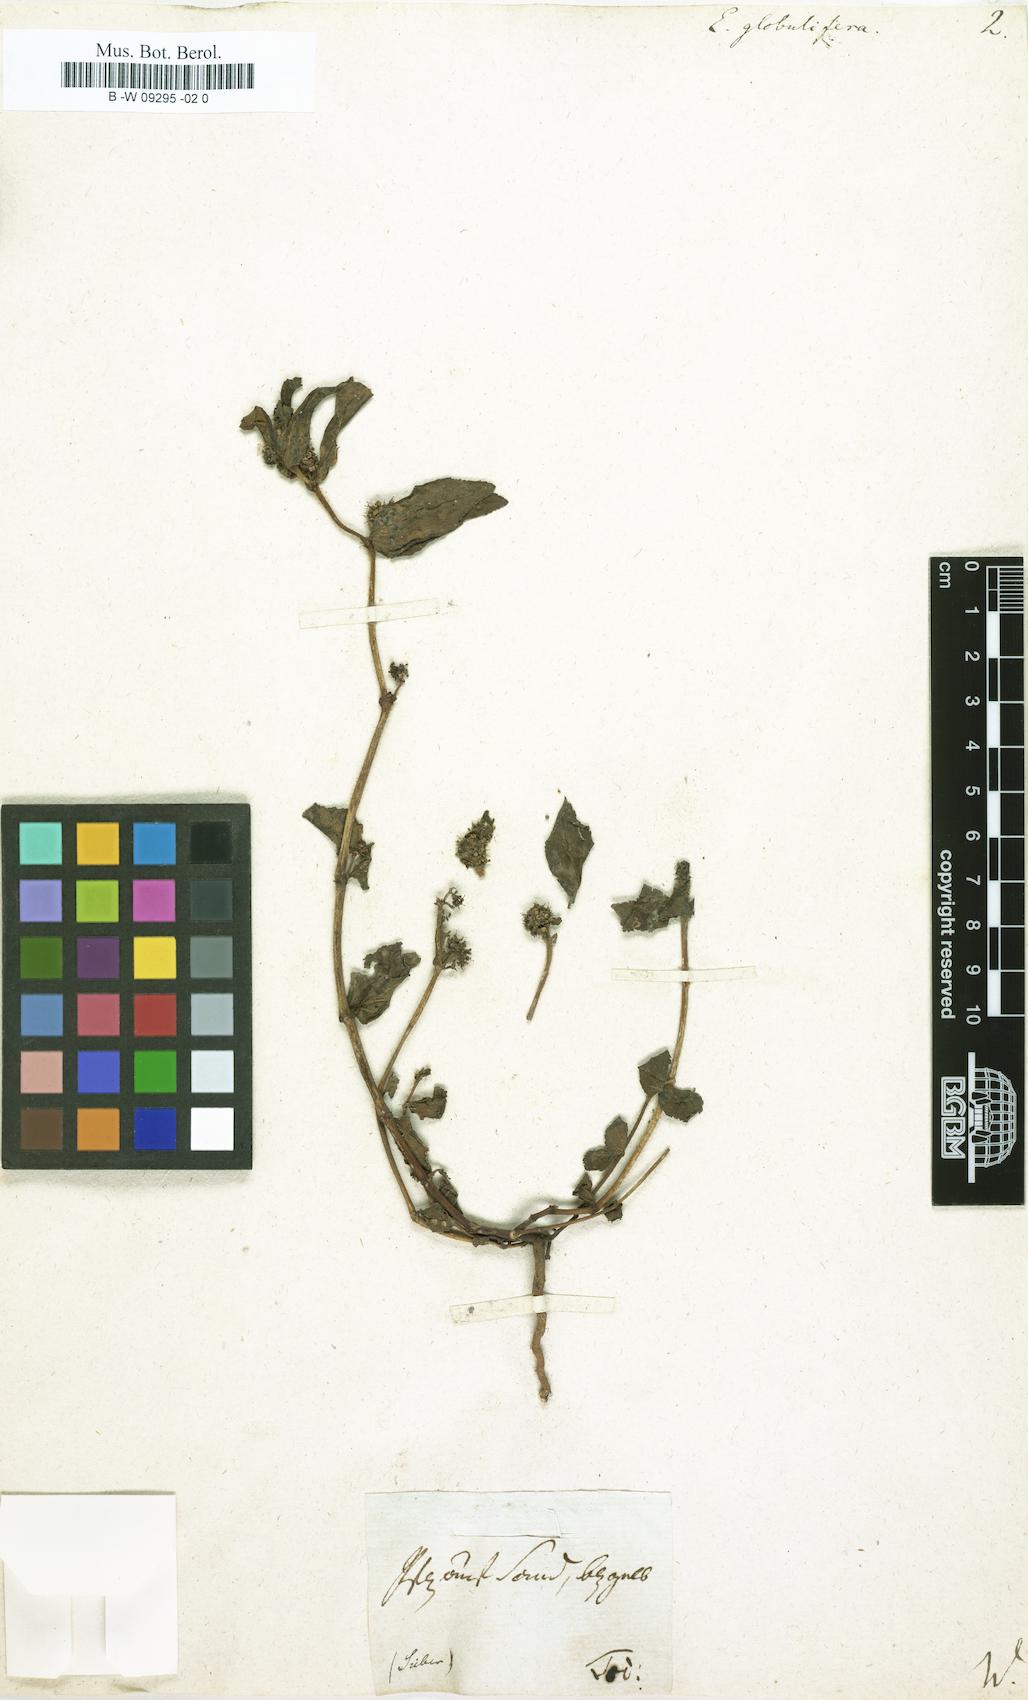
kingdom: Plantae
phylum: Tracheophyta
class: Magnoliopsida
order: Malpighiales
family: Euphorbiaceae
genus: Euphorbia
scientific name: Euphorbia hirta
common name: Pillpod sandmat
